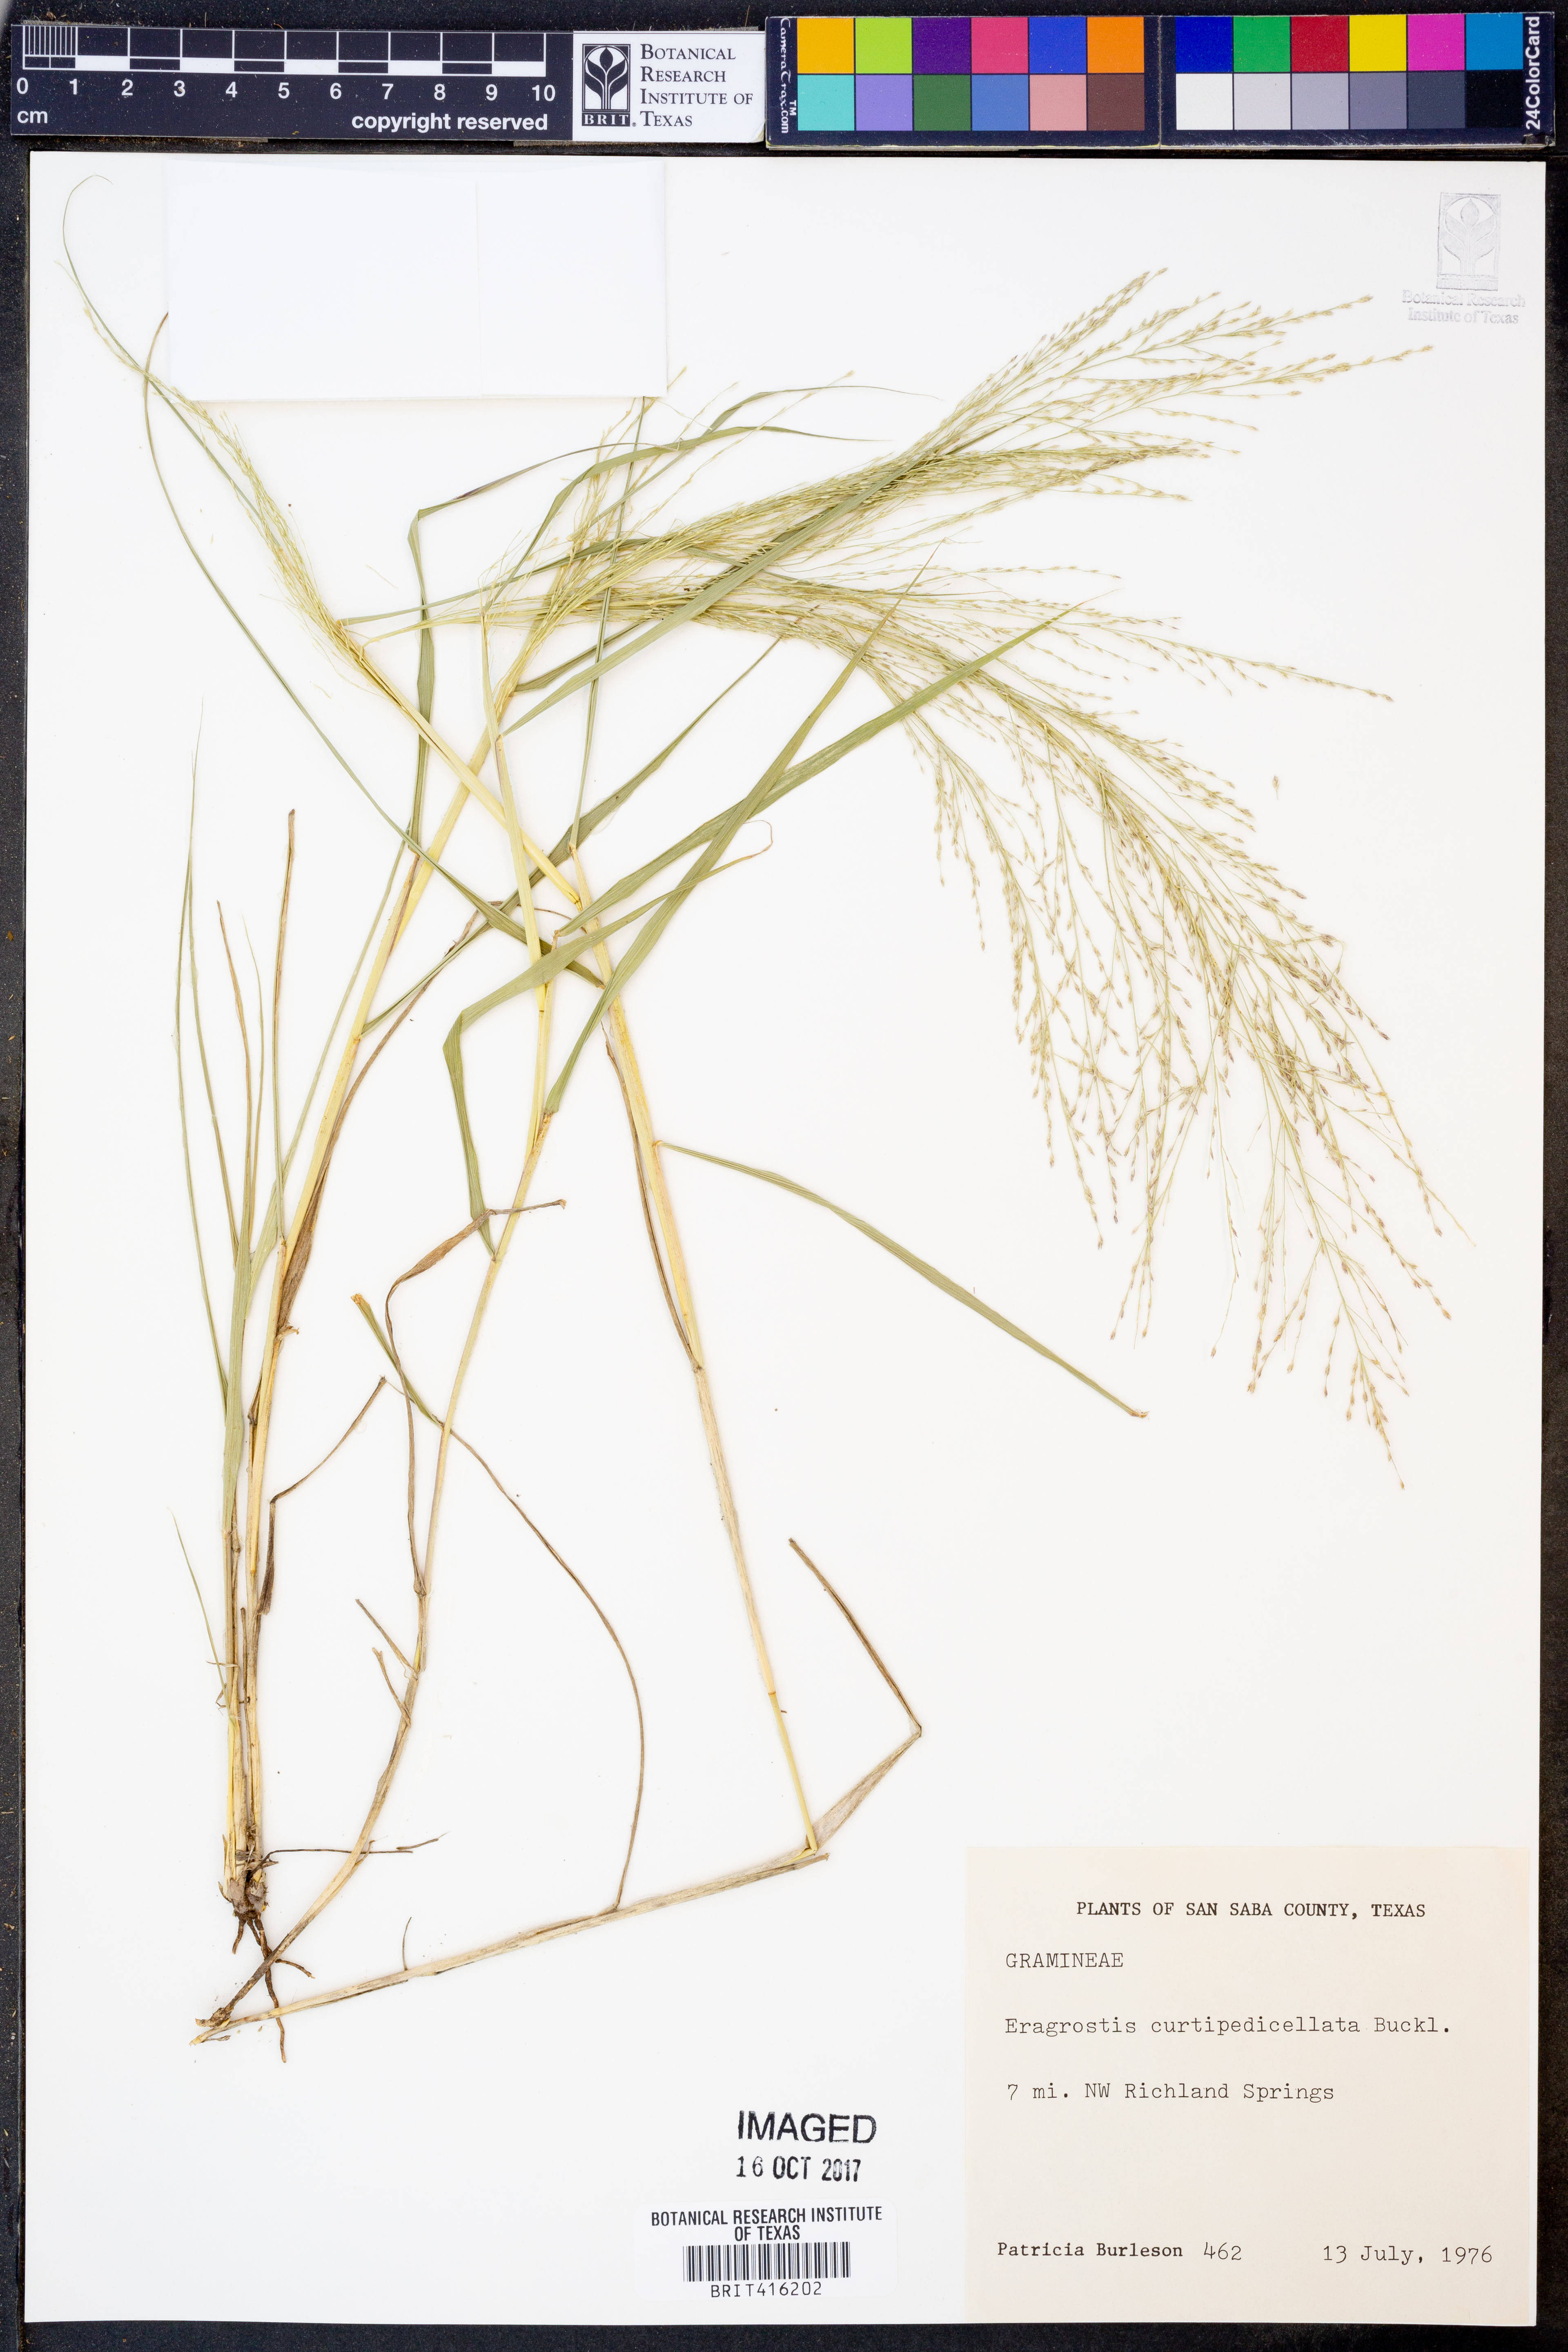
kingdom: Plantae
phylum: Tracheophyta
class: Liliopsida
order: Poales
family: Poaceae
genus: Eragrostis
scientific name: Eragrostis curtipedicellata
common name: Gummy love grass
